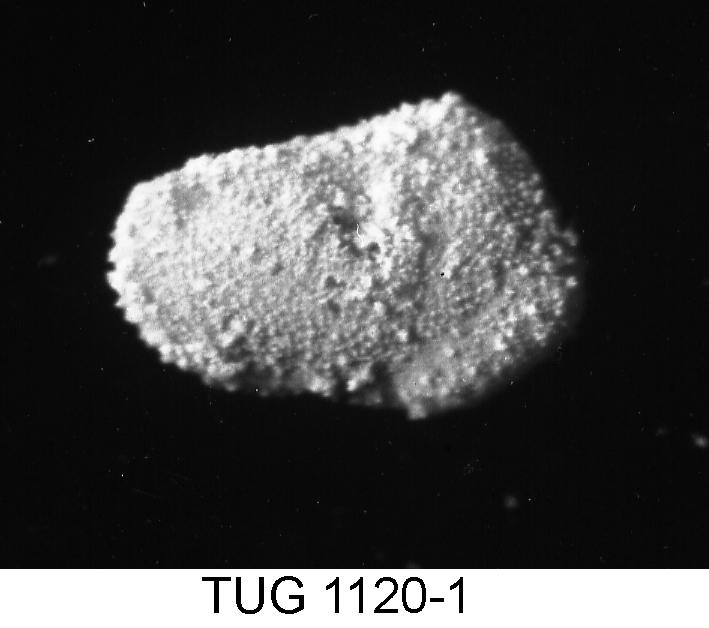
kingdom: Animalia
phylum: Arthropoda
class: Ostracoda
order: Palaeocopida
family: Tvaerenellidae
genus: Uhakiella
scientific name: Uhakiella
